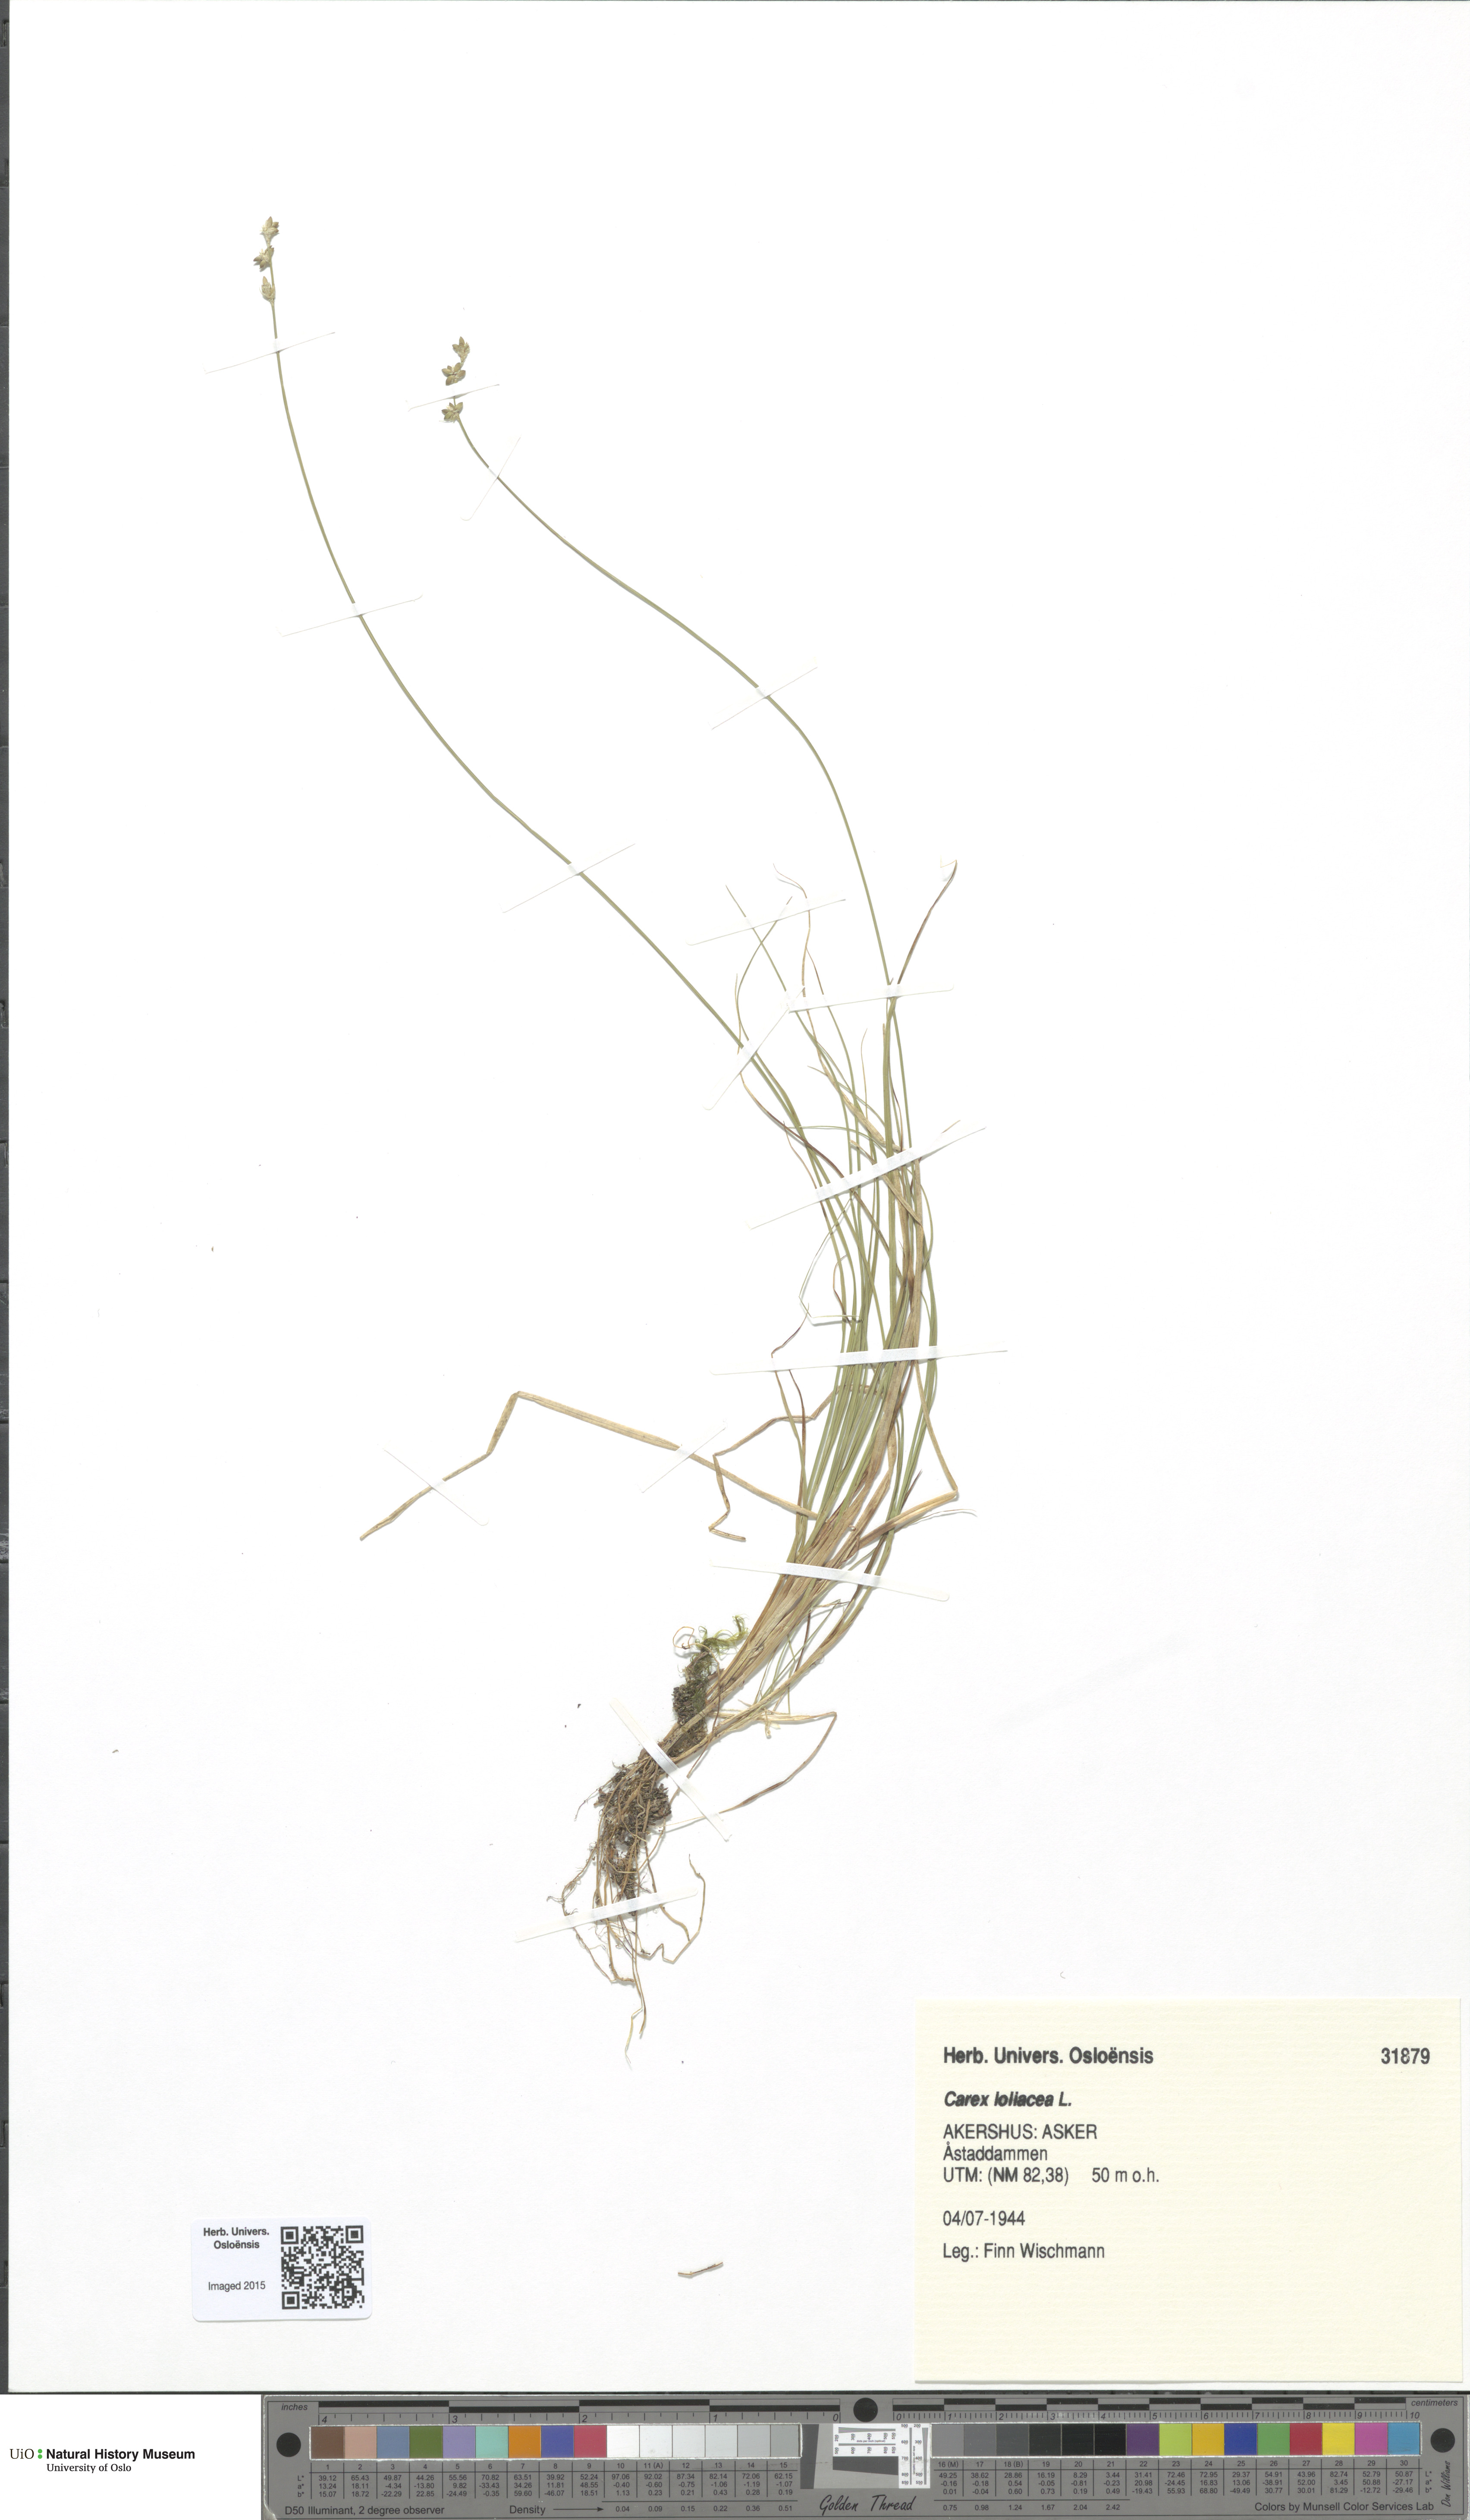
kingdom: Plantae
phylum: Tracheophyta
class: Liliopsida
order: Poales
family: Cyperaceae
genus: Carex
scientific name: Carex loliacea
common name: Ryegrass sedge
